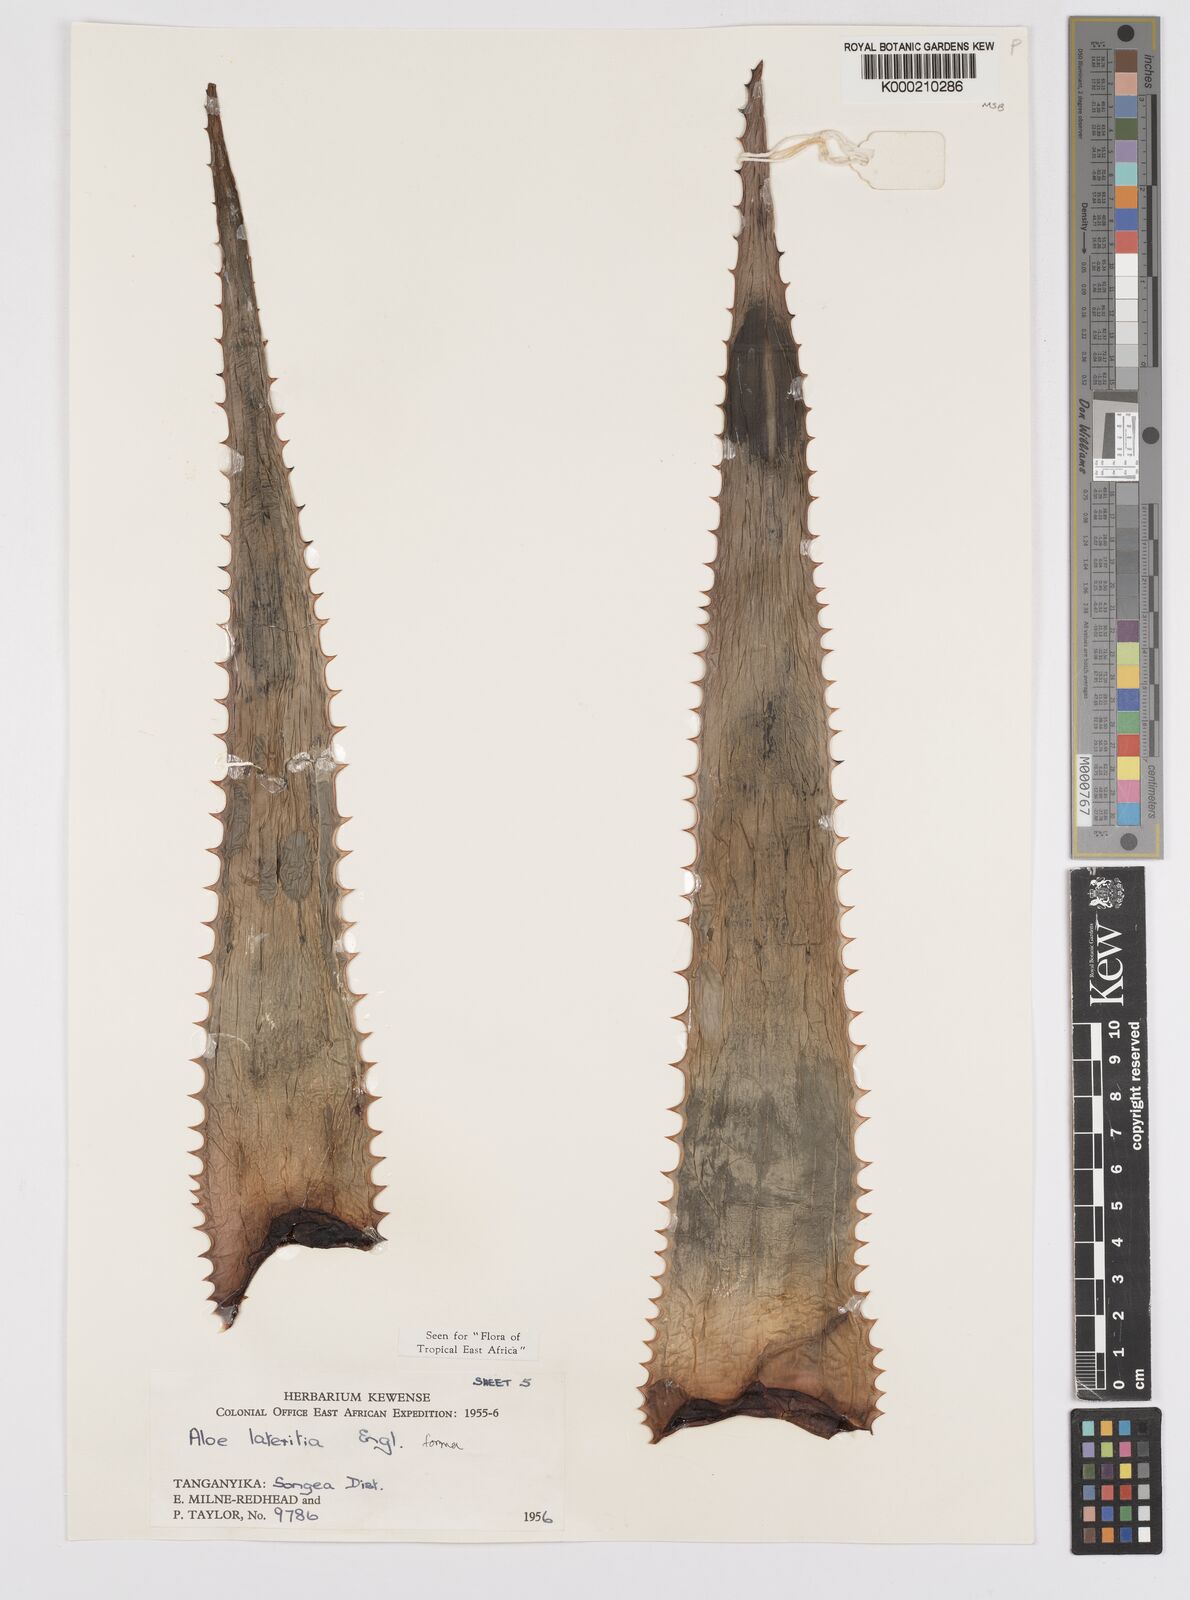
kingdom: Plantae
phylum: Tracheophyta
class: Liliopsida
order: Asparagales
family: Asphodelaceae
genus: Aloe
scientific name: Aloe lateritia
